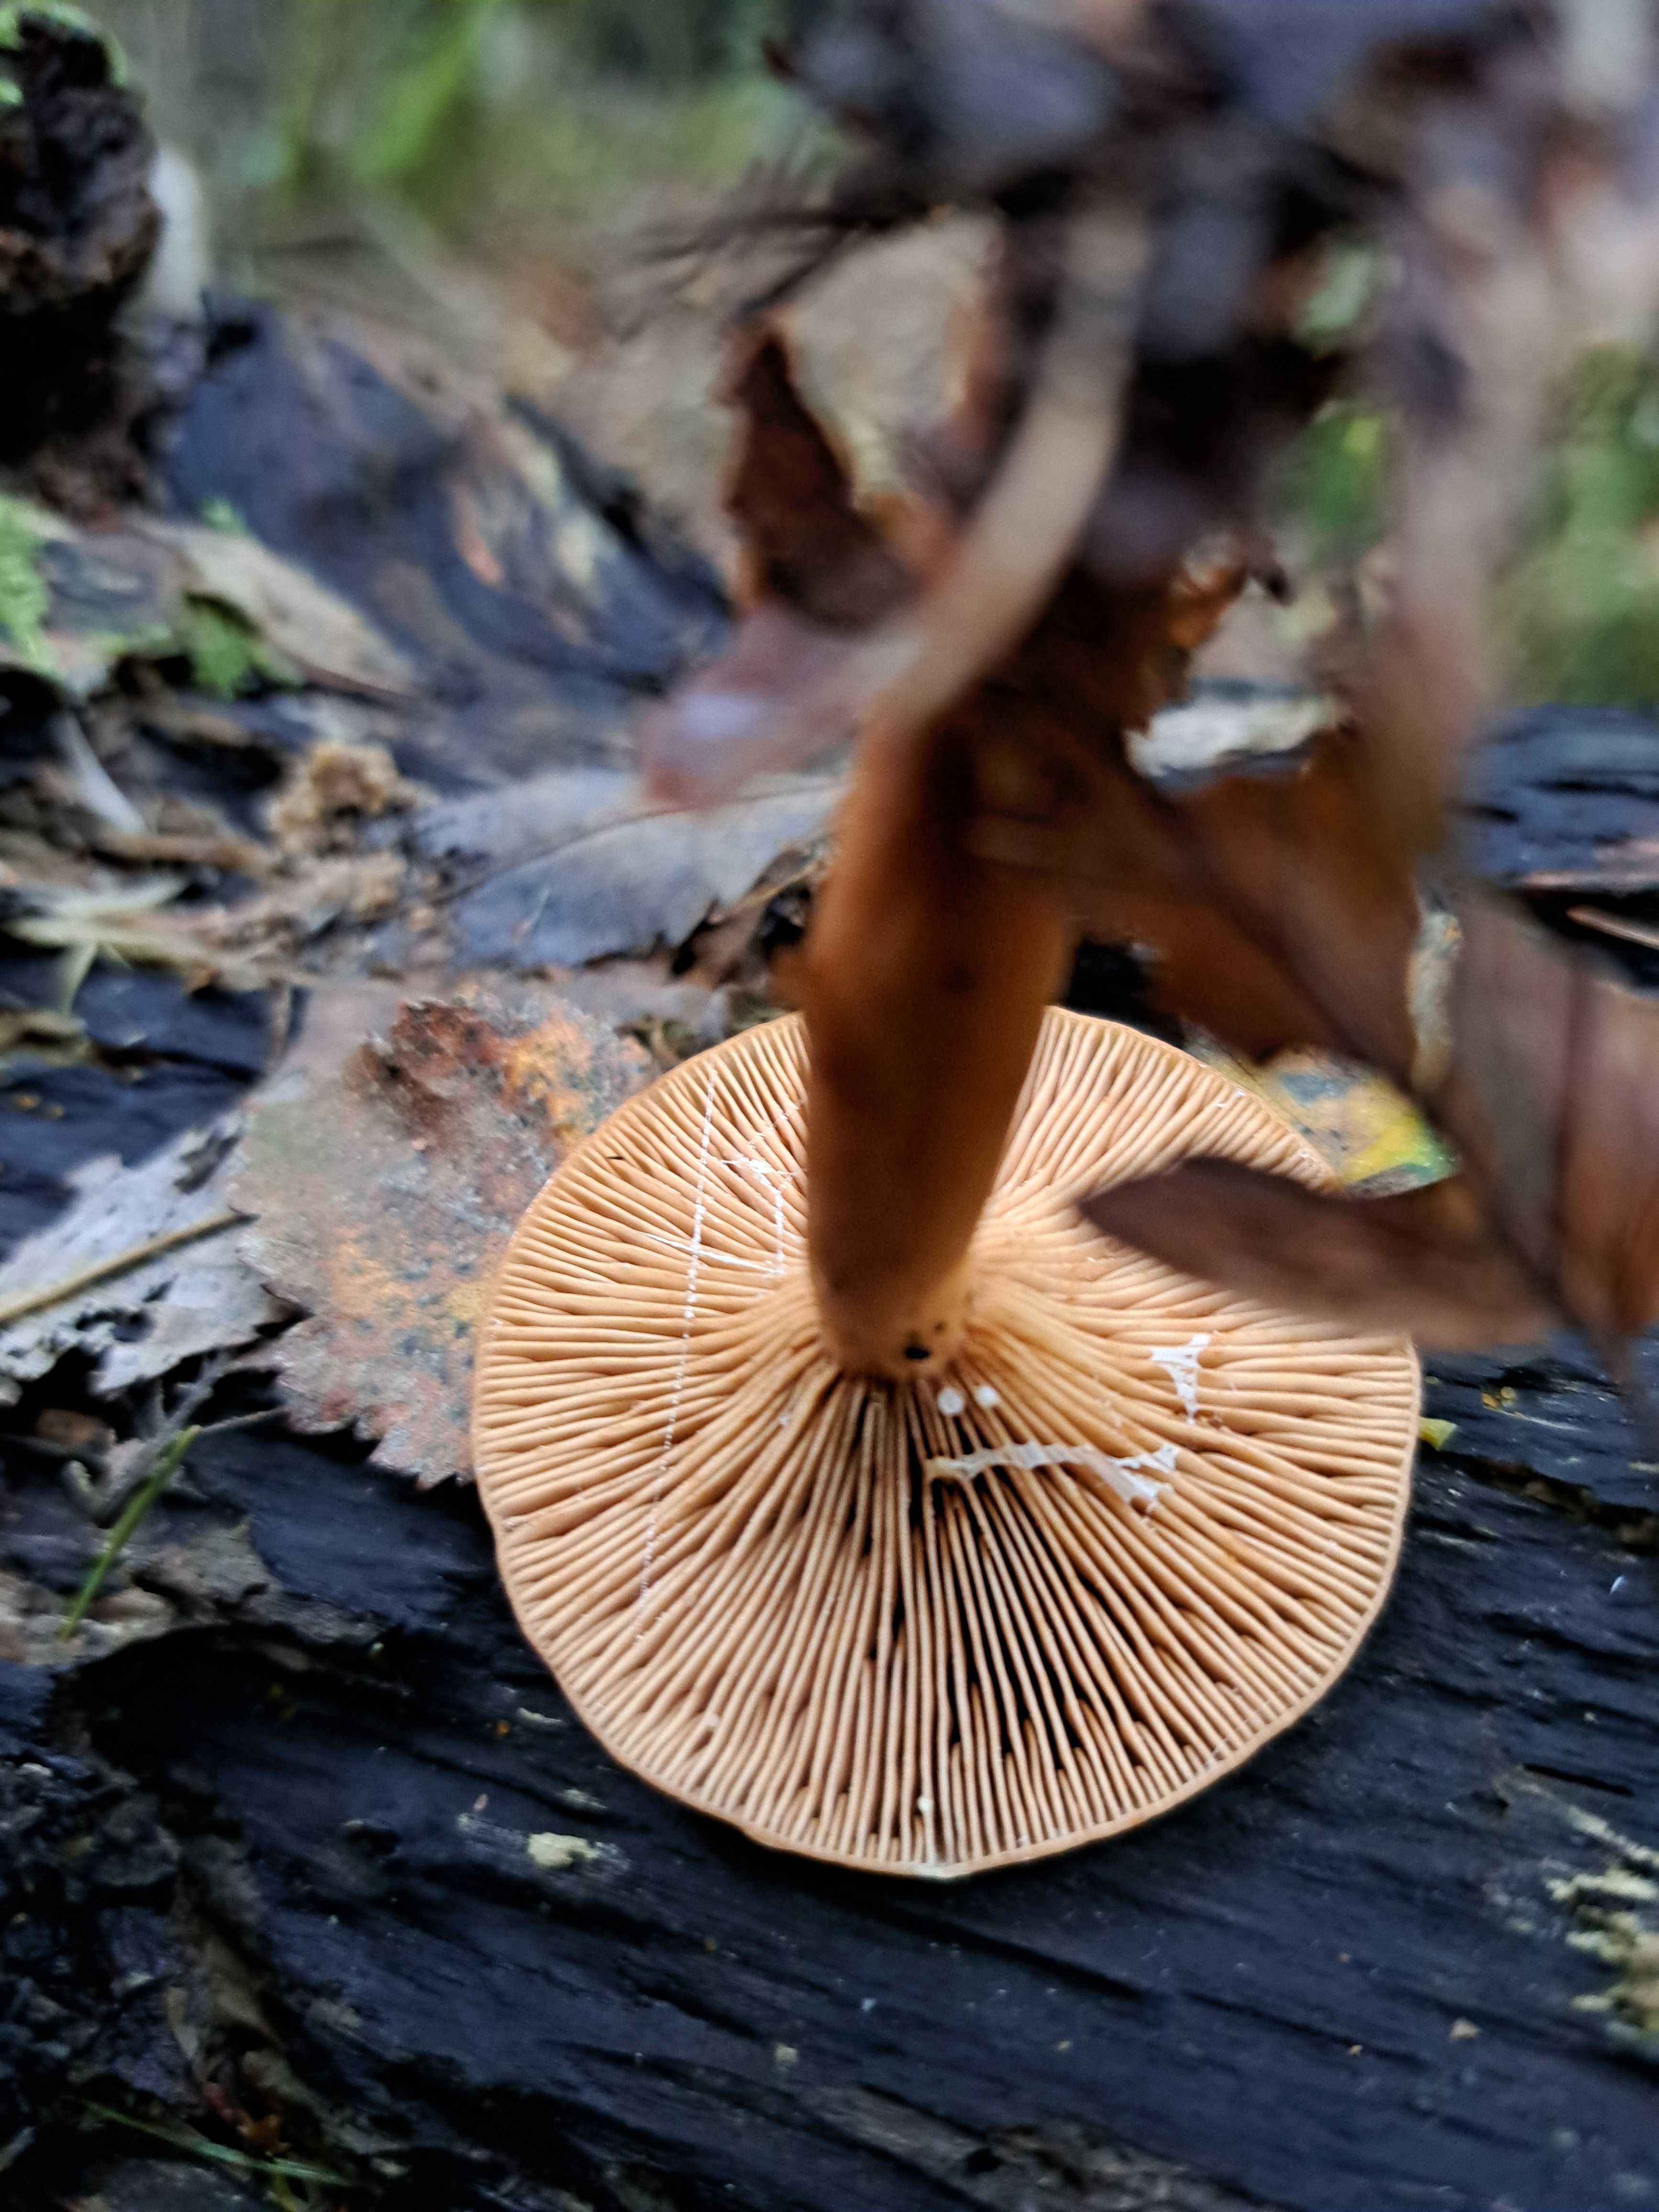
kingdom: Fungi
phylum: Basidiomycota
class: Agaricomycetes
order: Russulales
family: Russulaceae
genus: Lactarius
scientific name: Lactarius
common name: mælkehat
